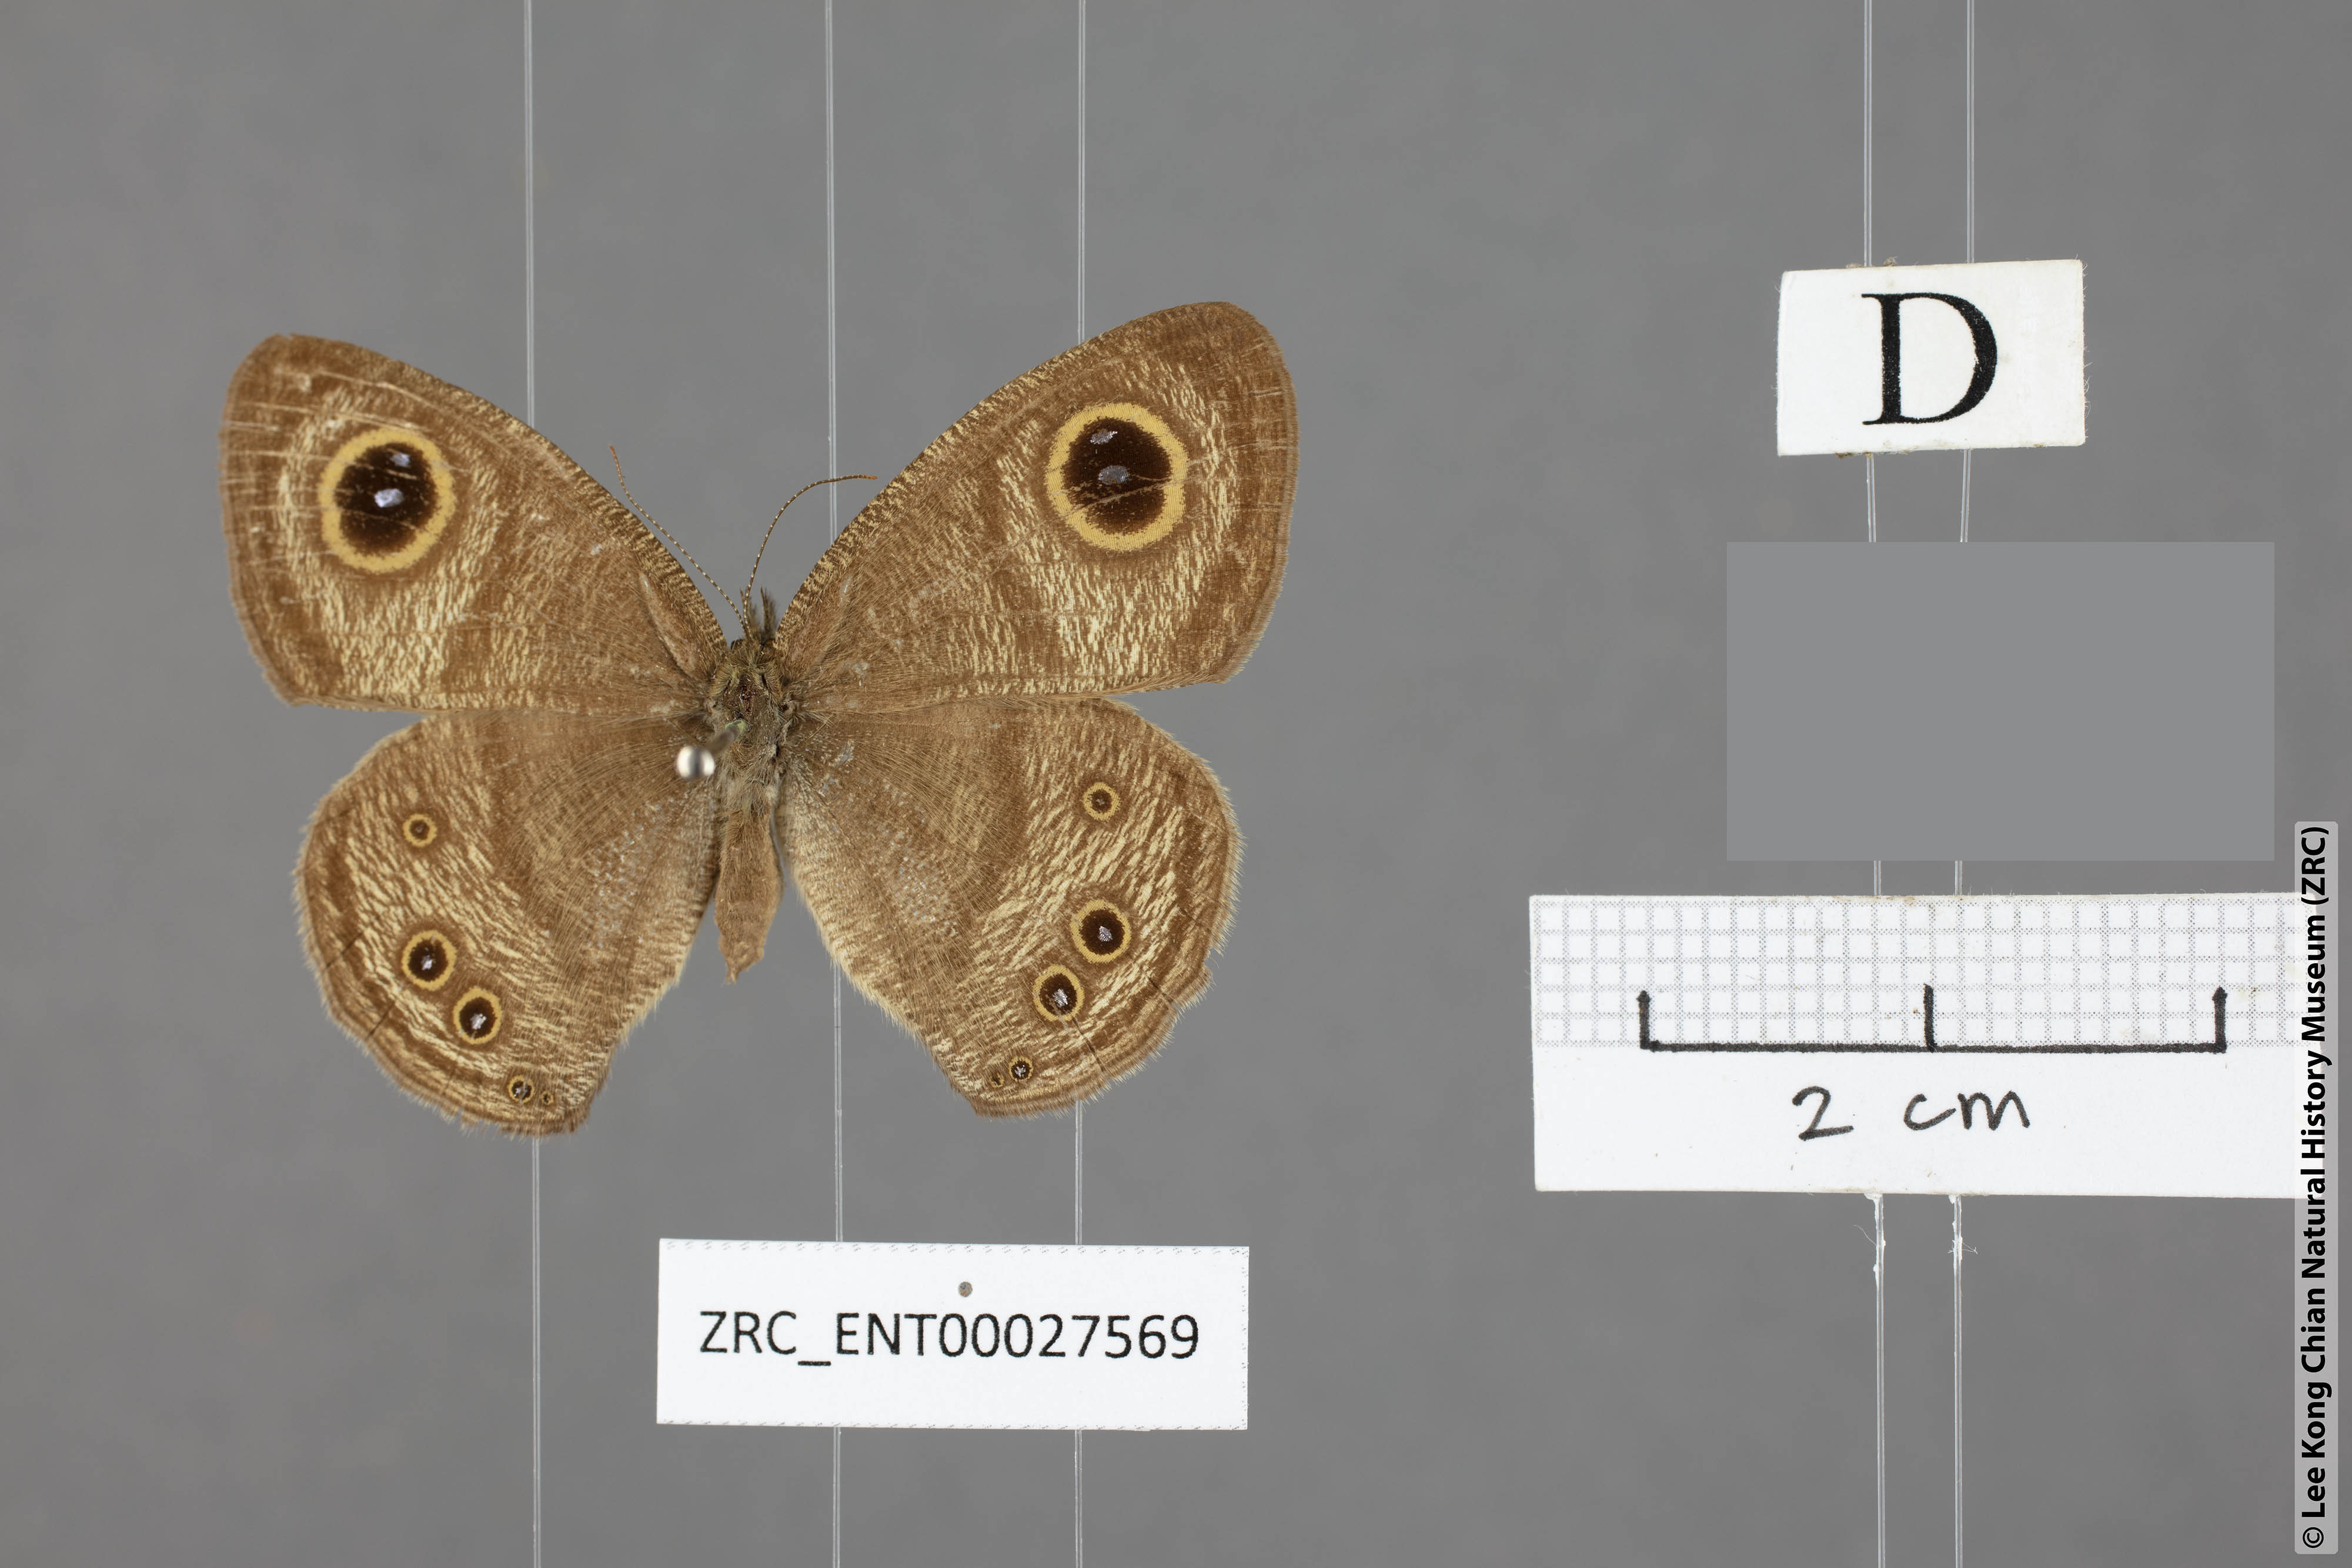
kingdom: Animalia
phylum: Arthropoda
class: Insecta
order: Lepidoptera
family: Nymphalidae
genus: Ypthima
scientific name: Ypthima savara
